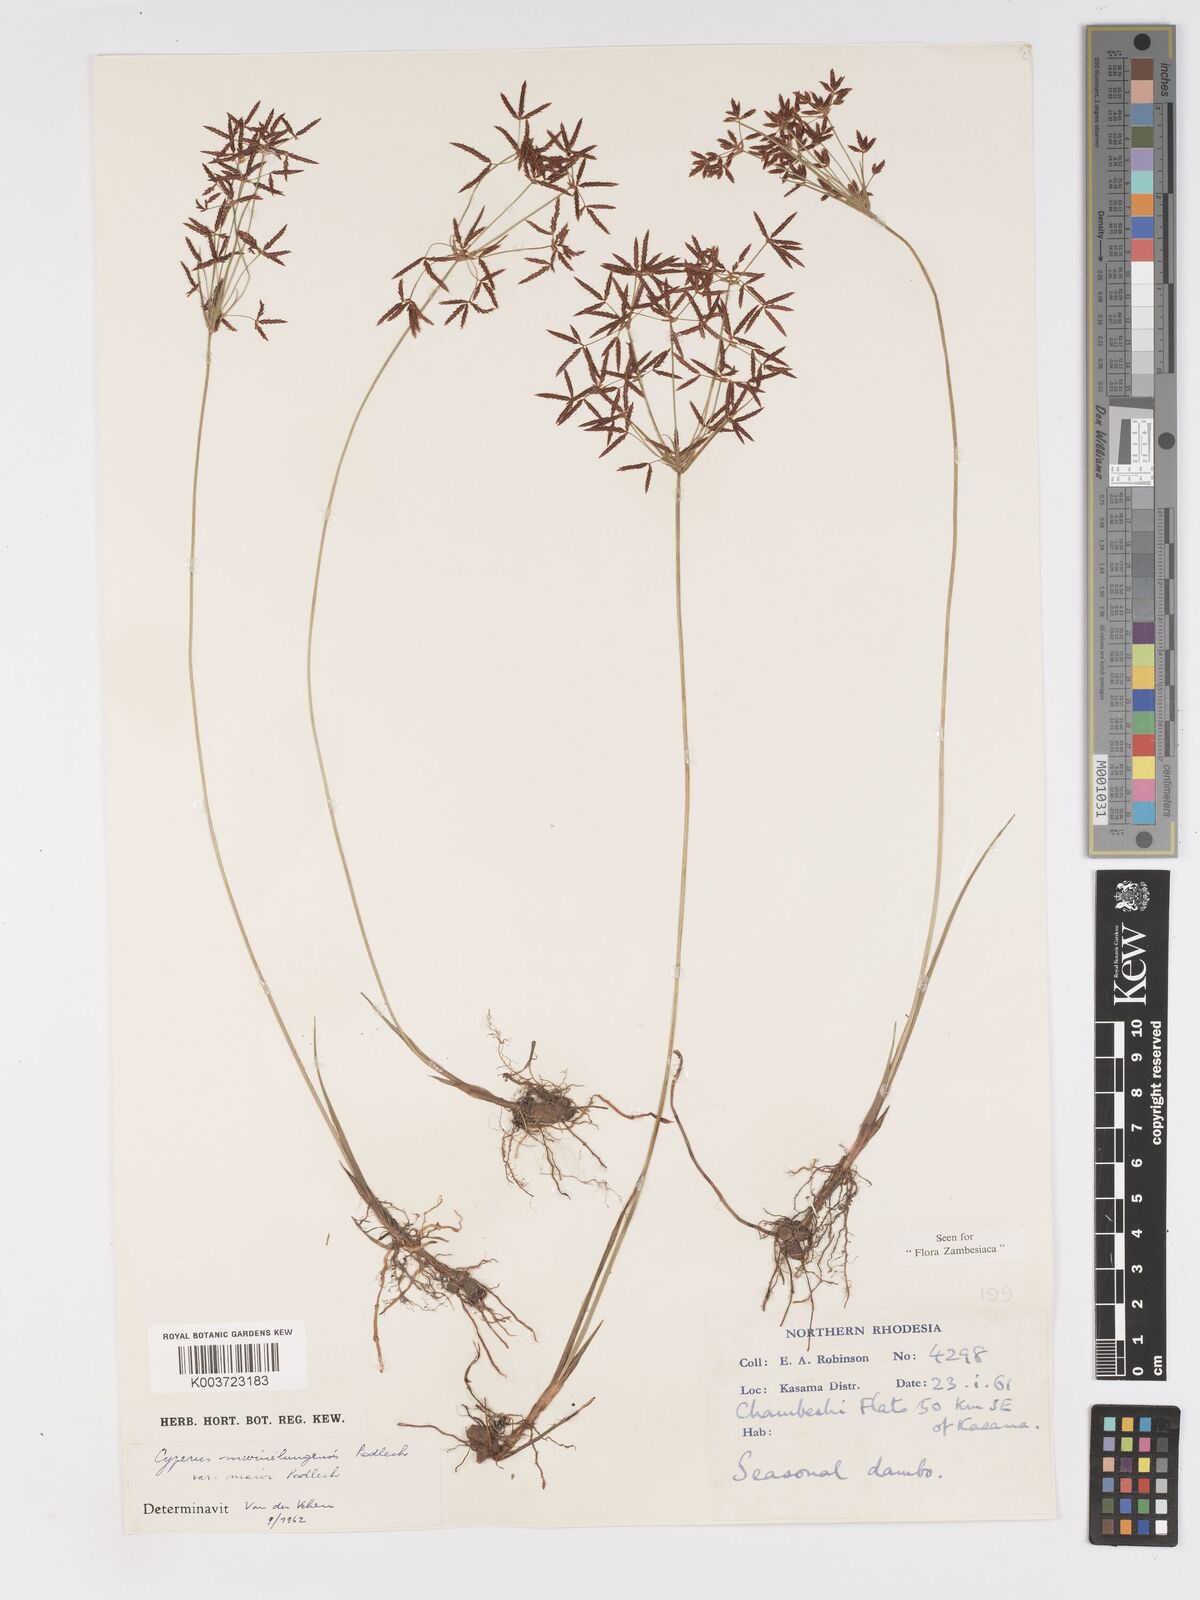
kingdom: Plantae
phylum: Tracheophyta
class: Liliopsida
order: Poales
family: Cyperaceae
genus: Cyperus
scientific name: Cyperus mwinilungensis
